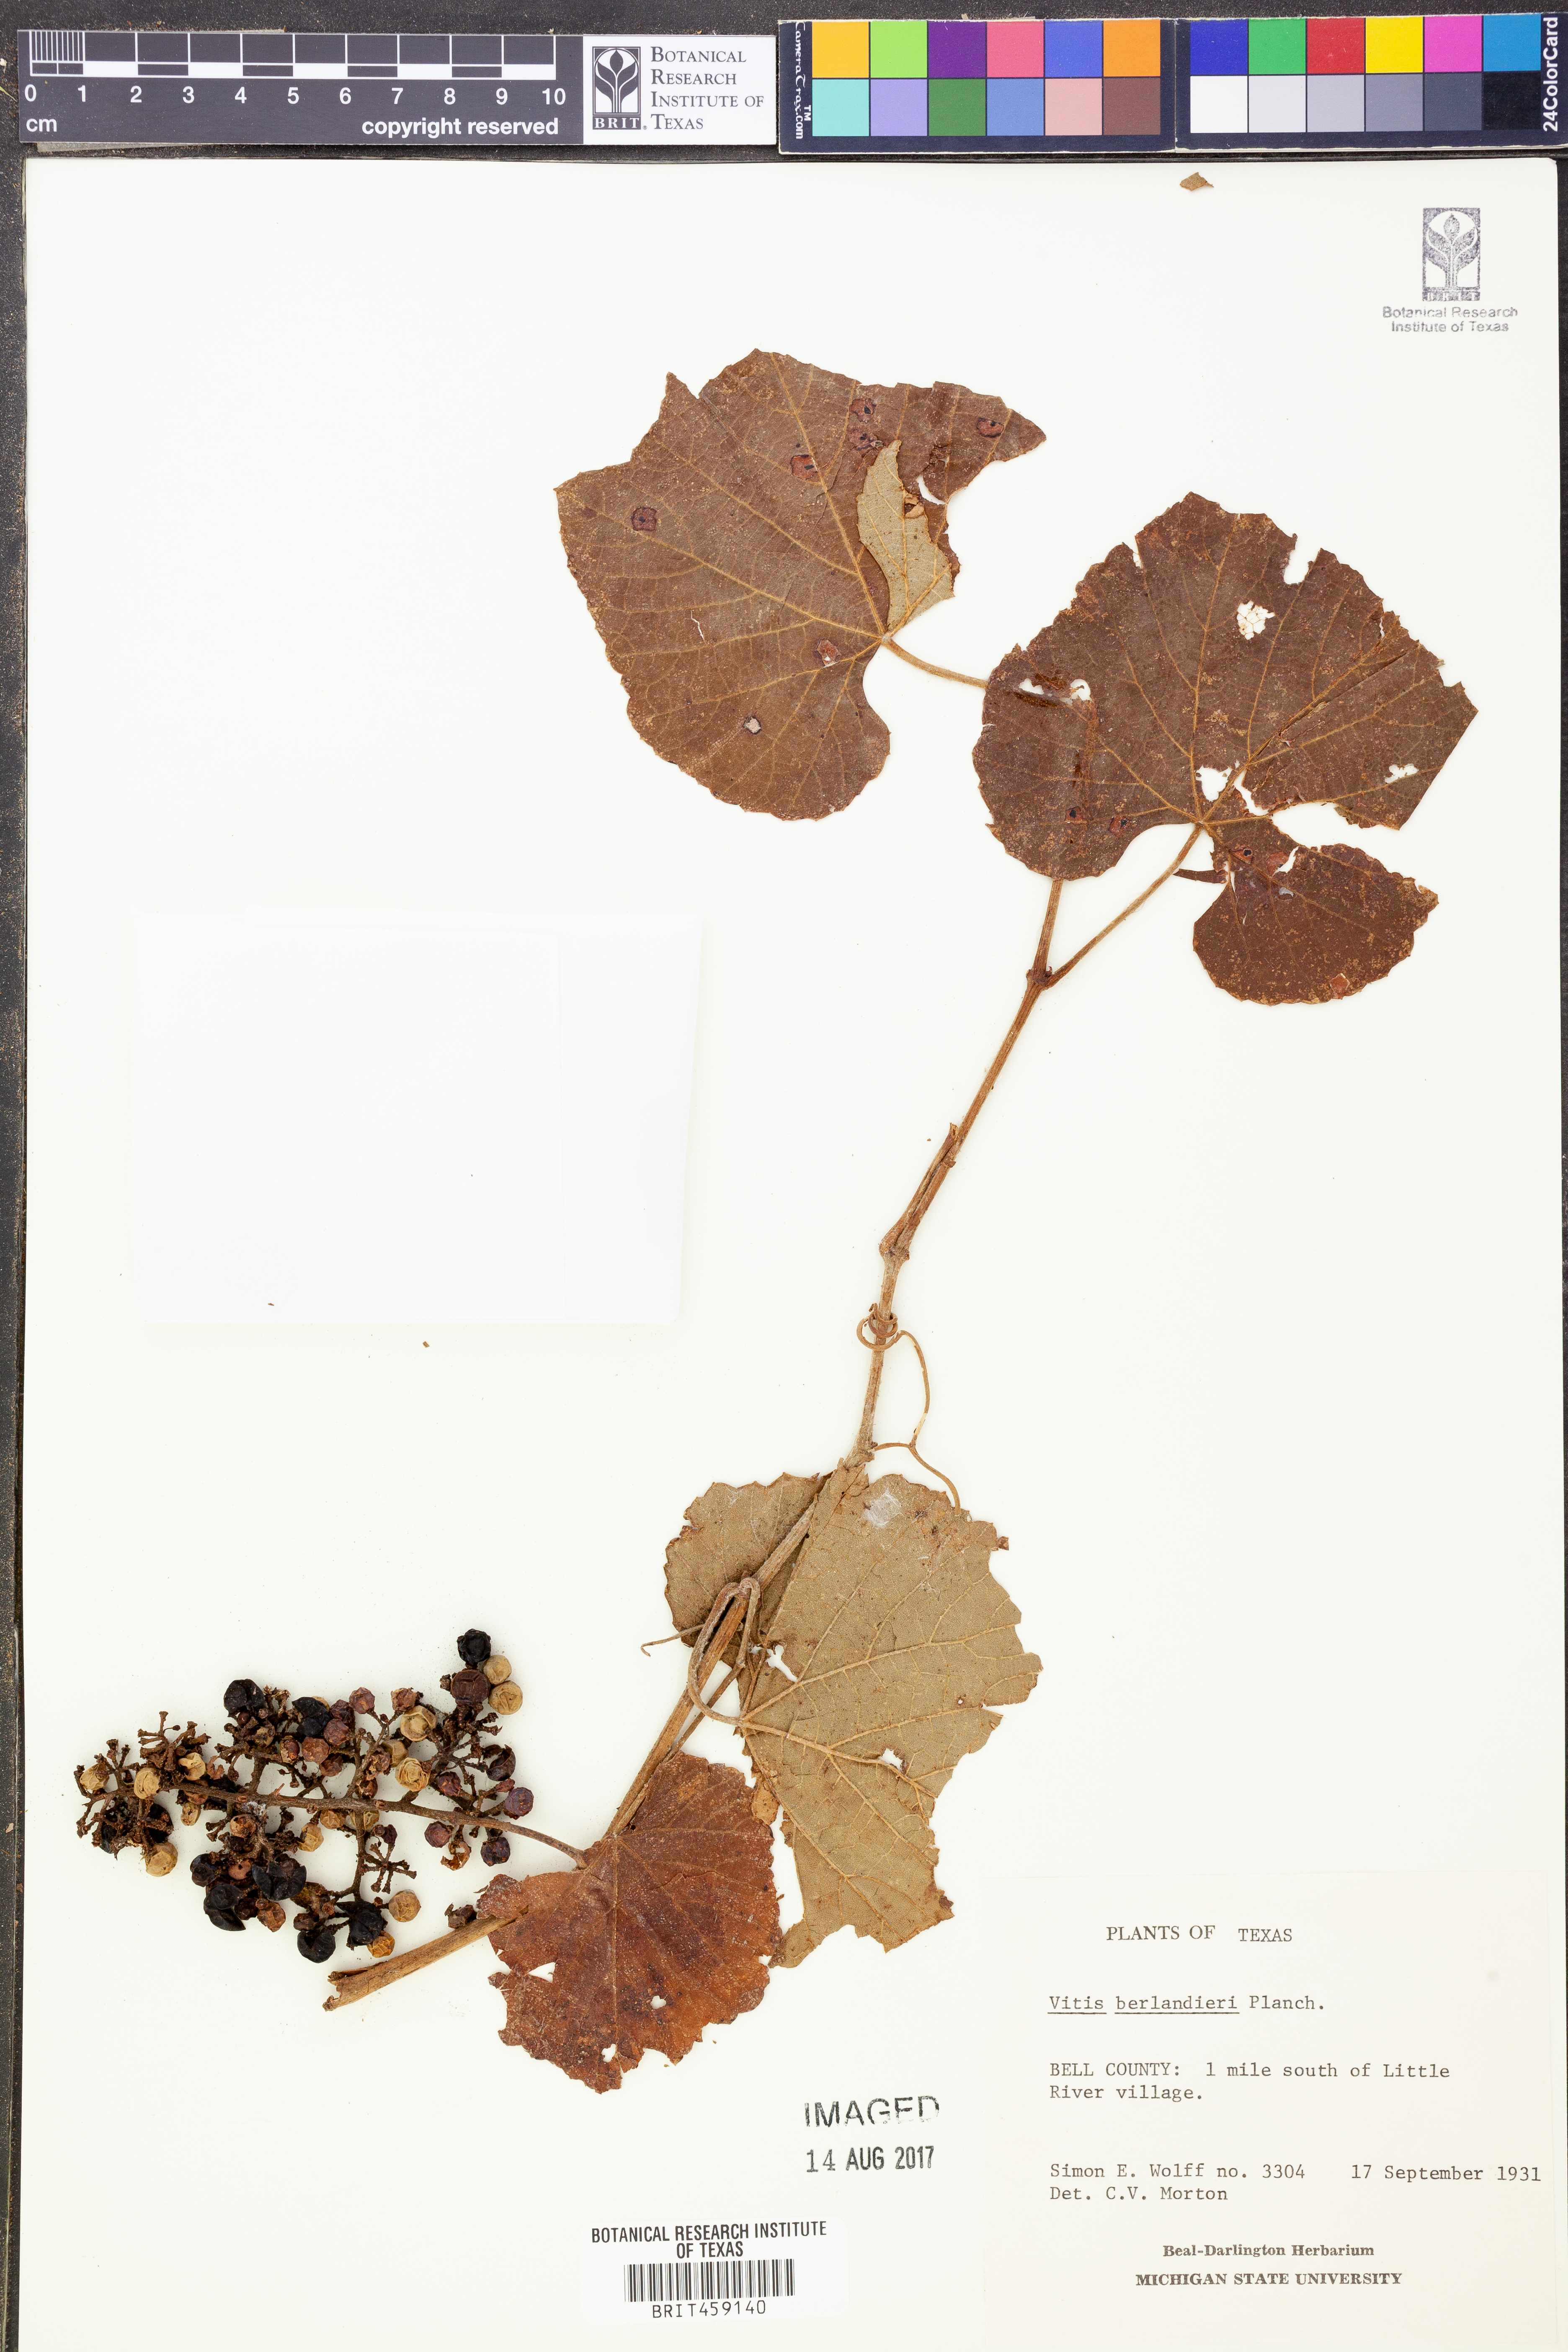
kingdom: Plantae
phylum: Tracheophyta
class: Magnoliopsida
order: Vitales
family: Vitaceae
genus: Vitis
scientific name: Vitis cinerea
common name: Ashy grape
